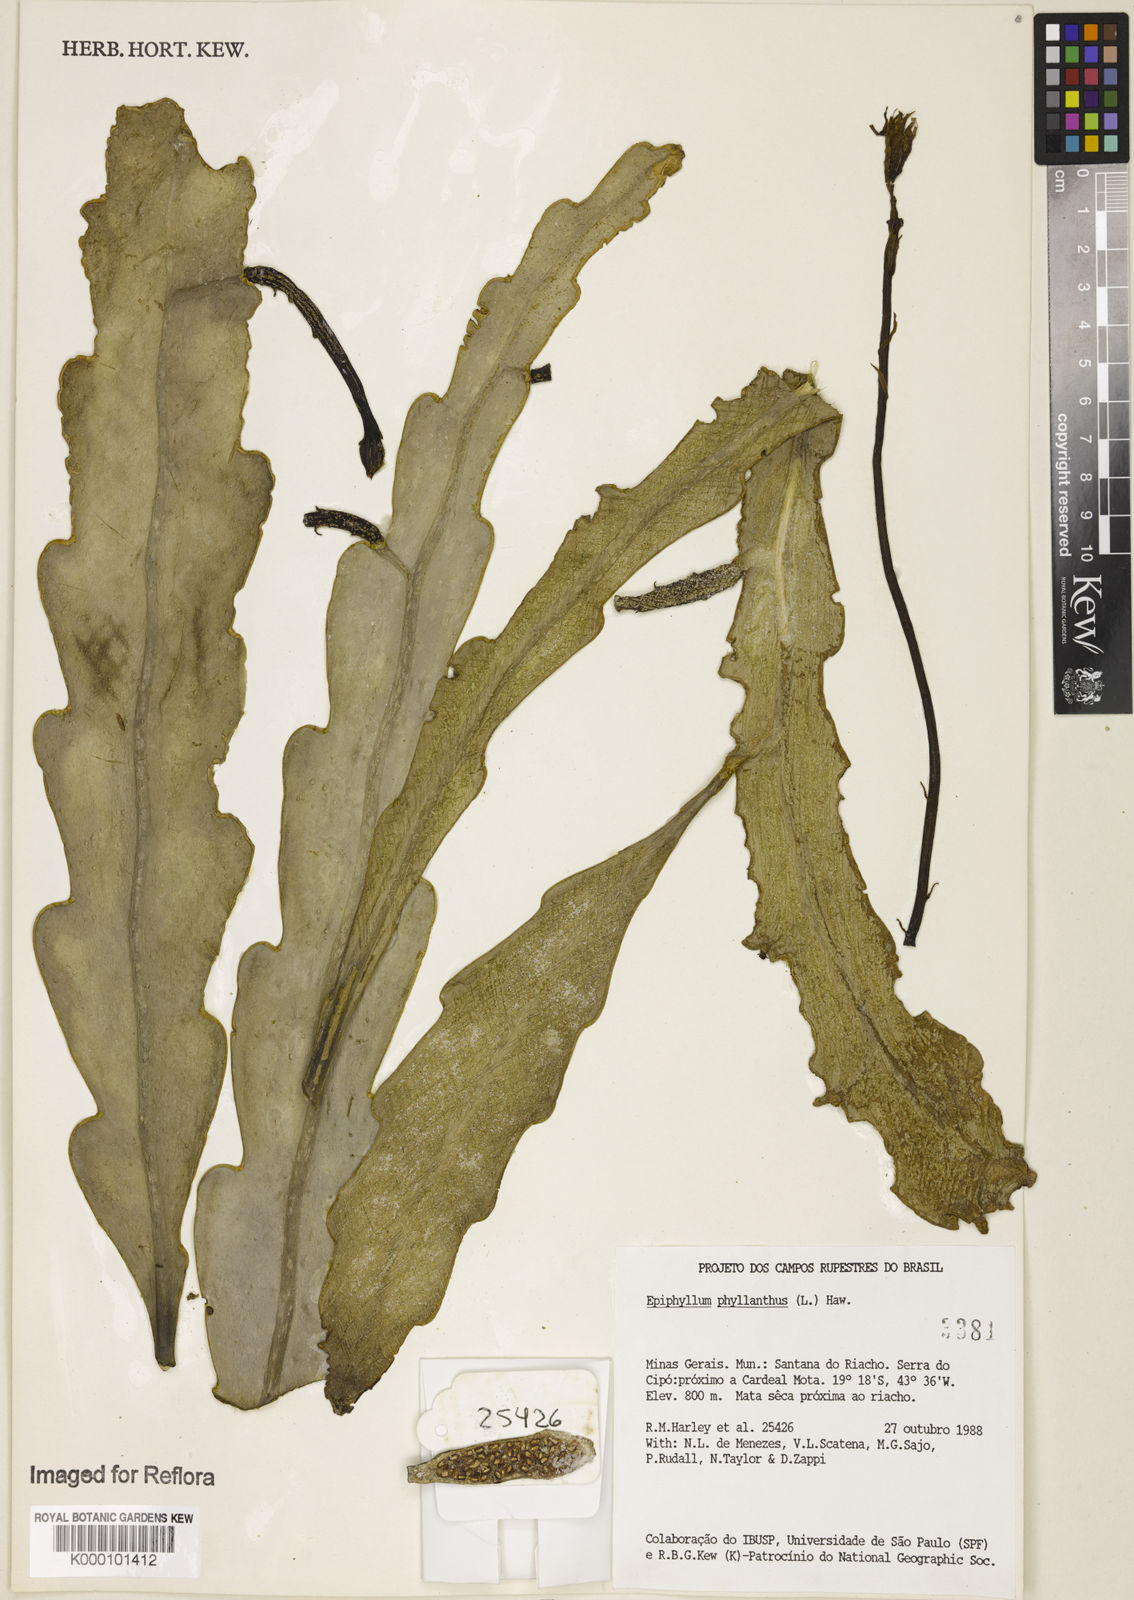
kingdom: Plantae
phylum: Tracheophyta
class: Magnoliopsida
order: Caryophyllales
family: Cactaceae
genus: Epiphyllum
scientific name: Epiphyllum phyllanthus
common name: Climbing cactus
